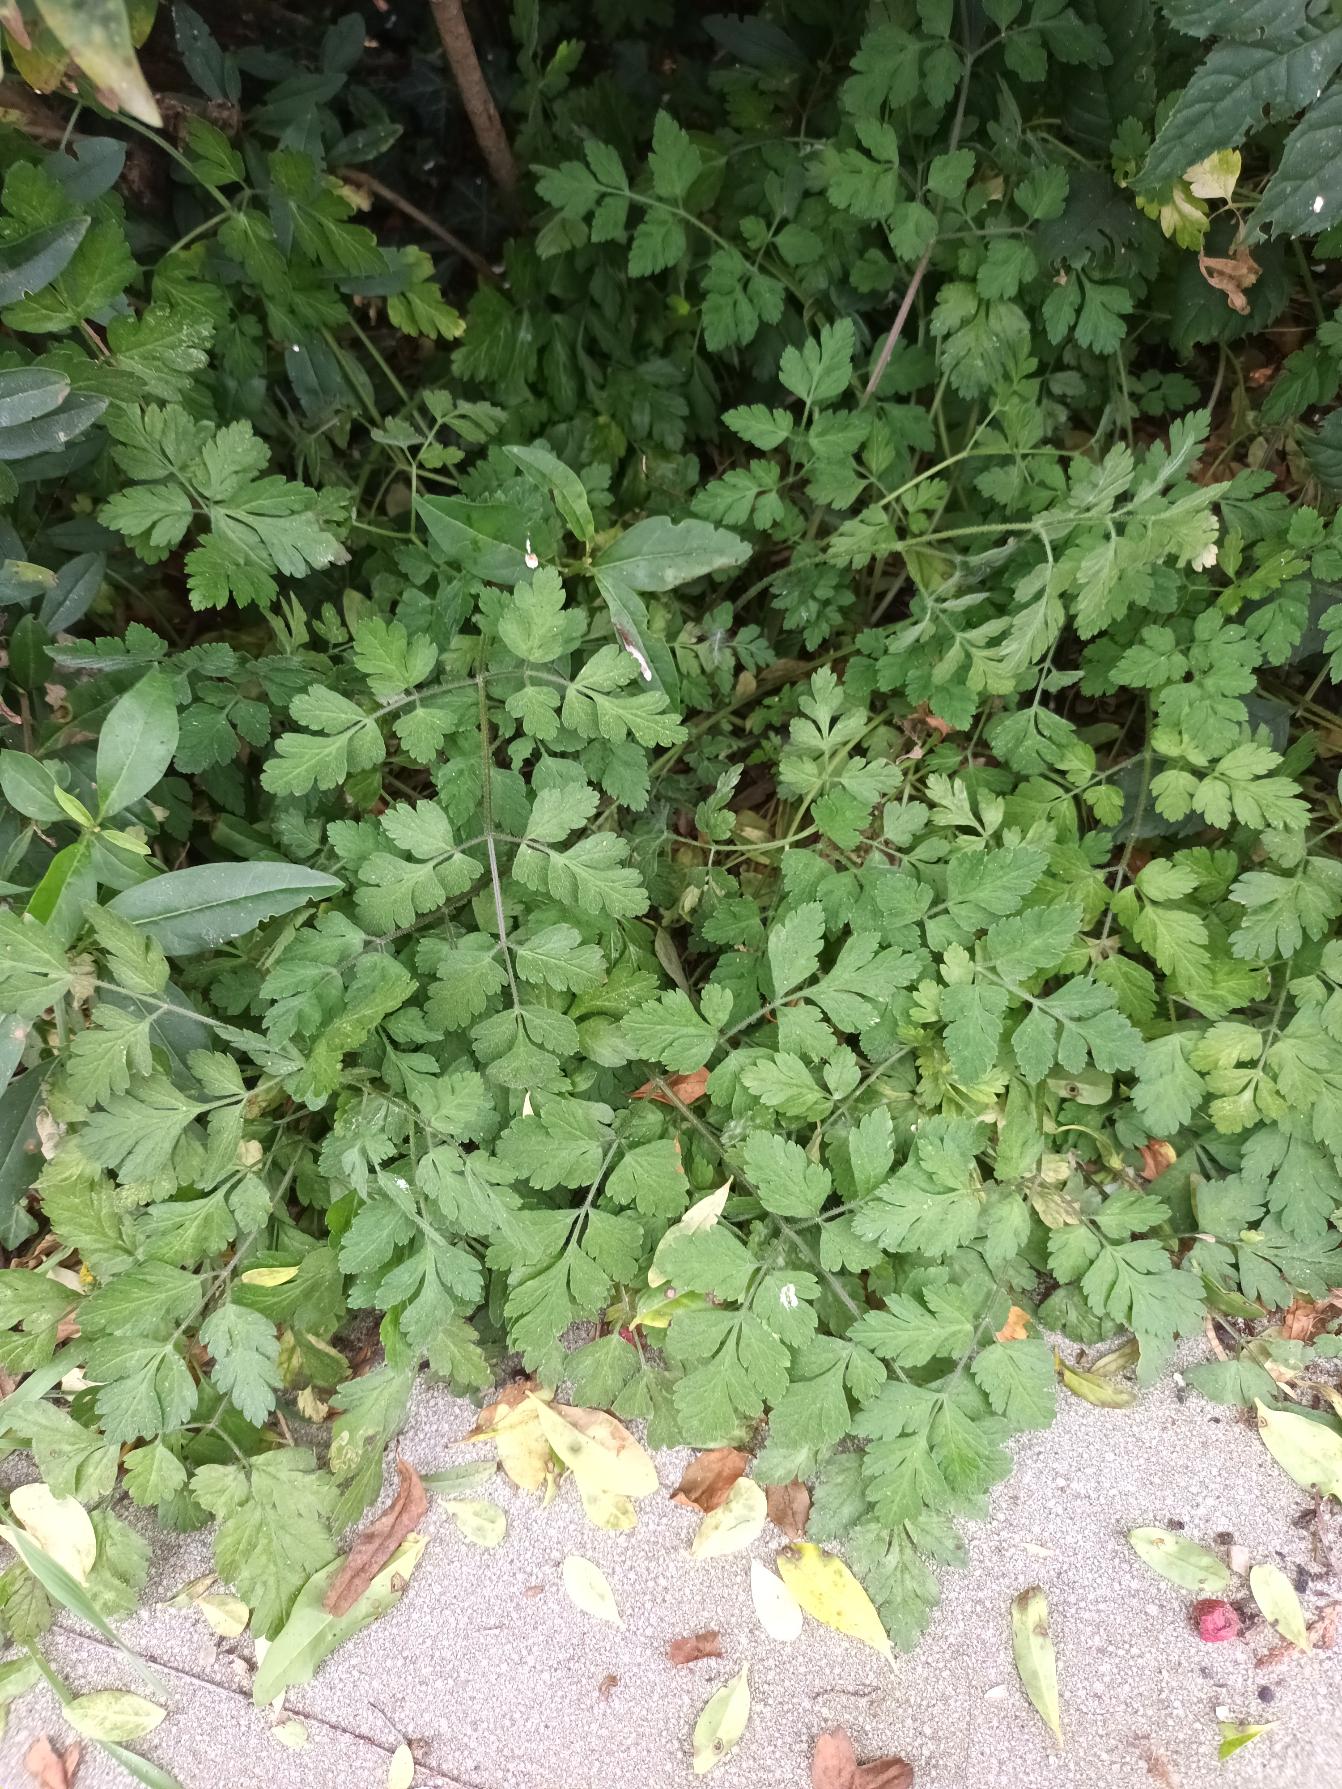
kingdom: Plantae
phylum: Tracheophyta
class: Magnoliopsida
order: Apiales
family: Apiaceae
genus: Chaerophyllum
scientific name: Chaerophyllum temulum
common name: Almindelig hulsvøb
